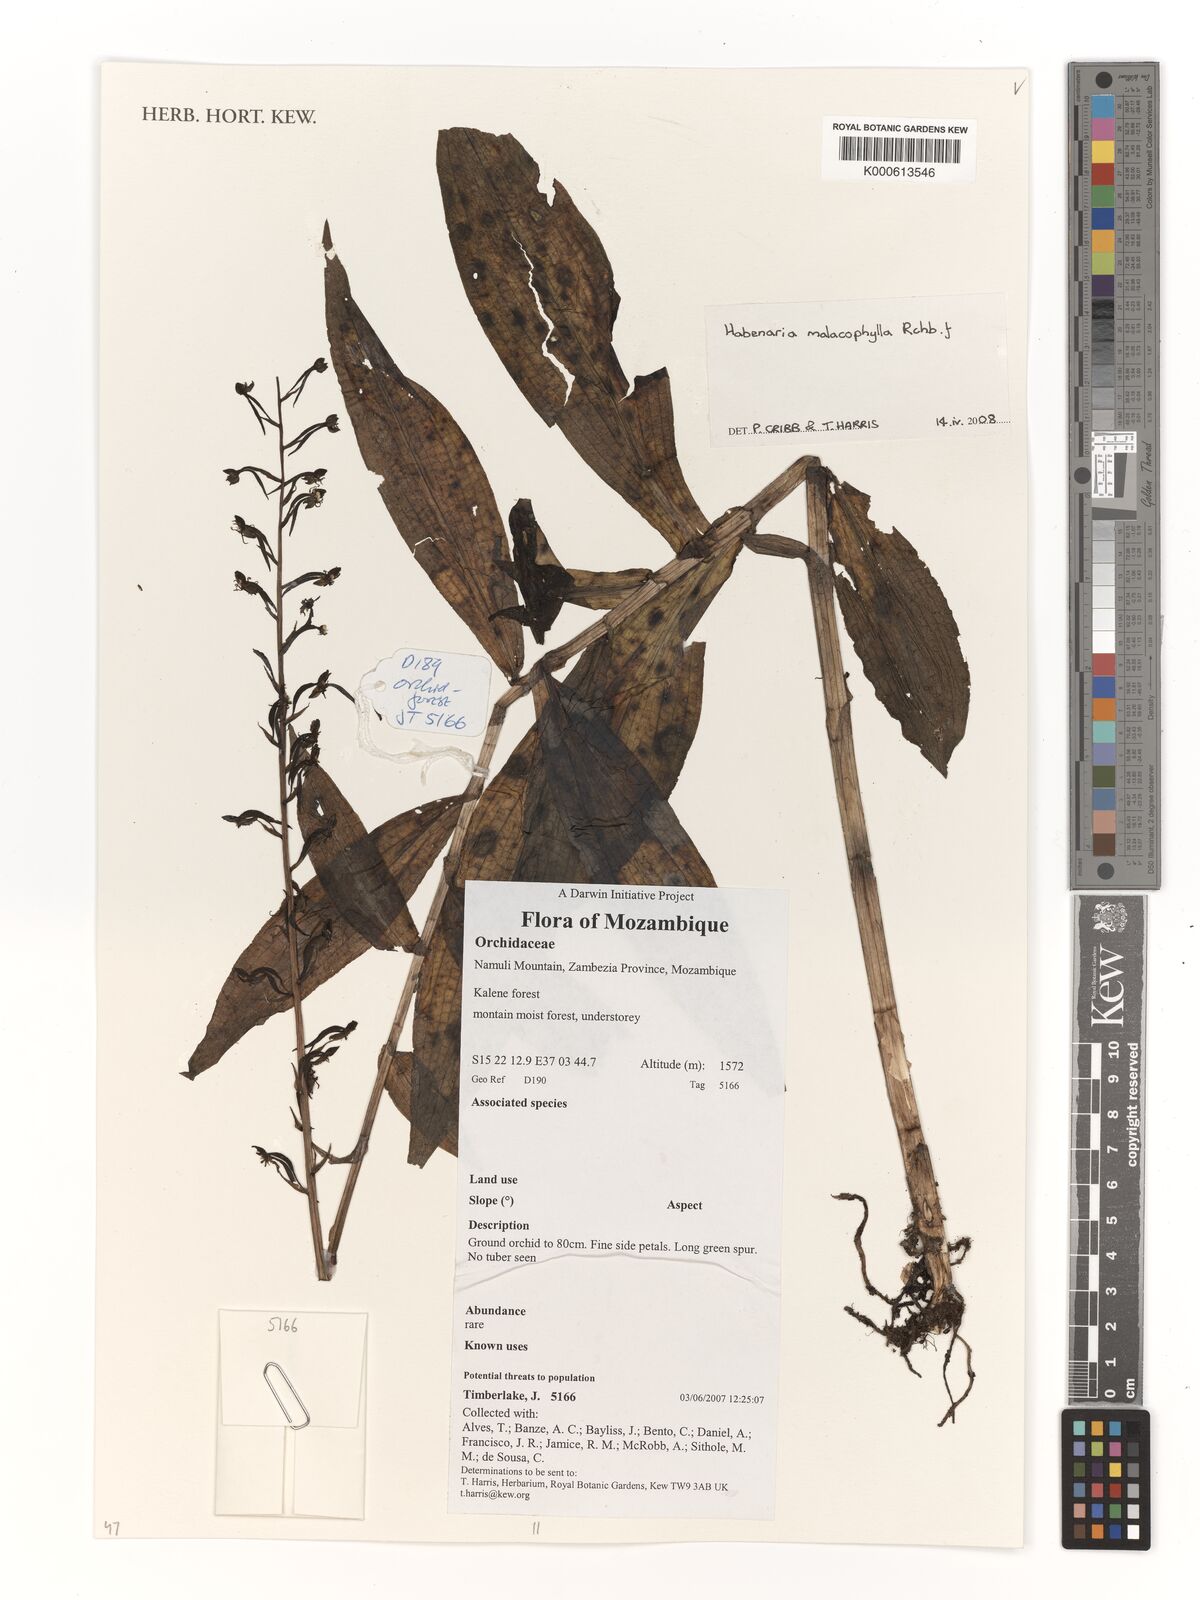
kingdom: Plantae
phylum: Tracheophyta
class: Liliopsida
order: Asparagales
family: Orchidaceae
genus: Habenaria
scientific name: Habenaria malacophylla
